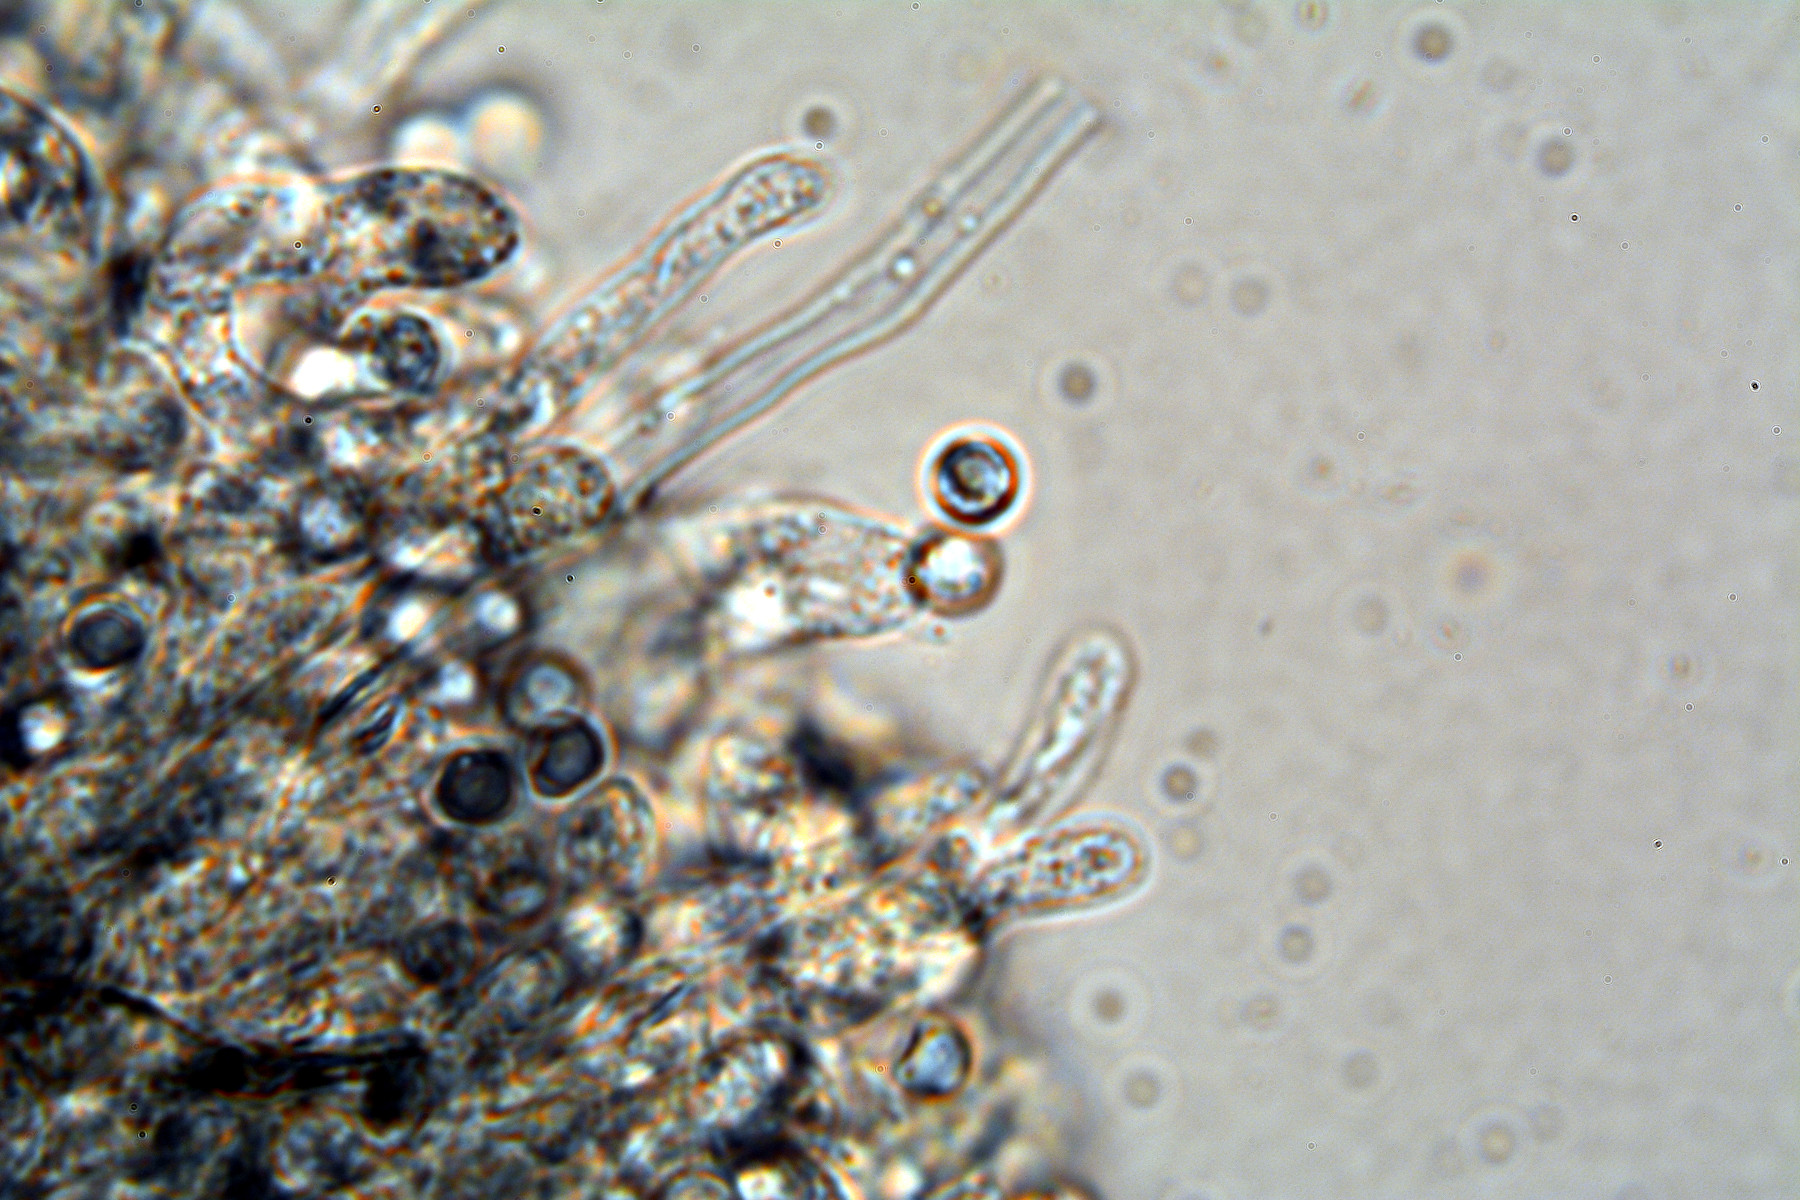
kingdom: Fungi
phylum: Basidiomycota
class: Agaricomycetes
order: Atheliales
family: Atheliaceae
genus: Byssocorticium
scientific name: Byssocorticium atrovirens
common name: blå førnehinde
